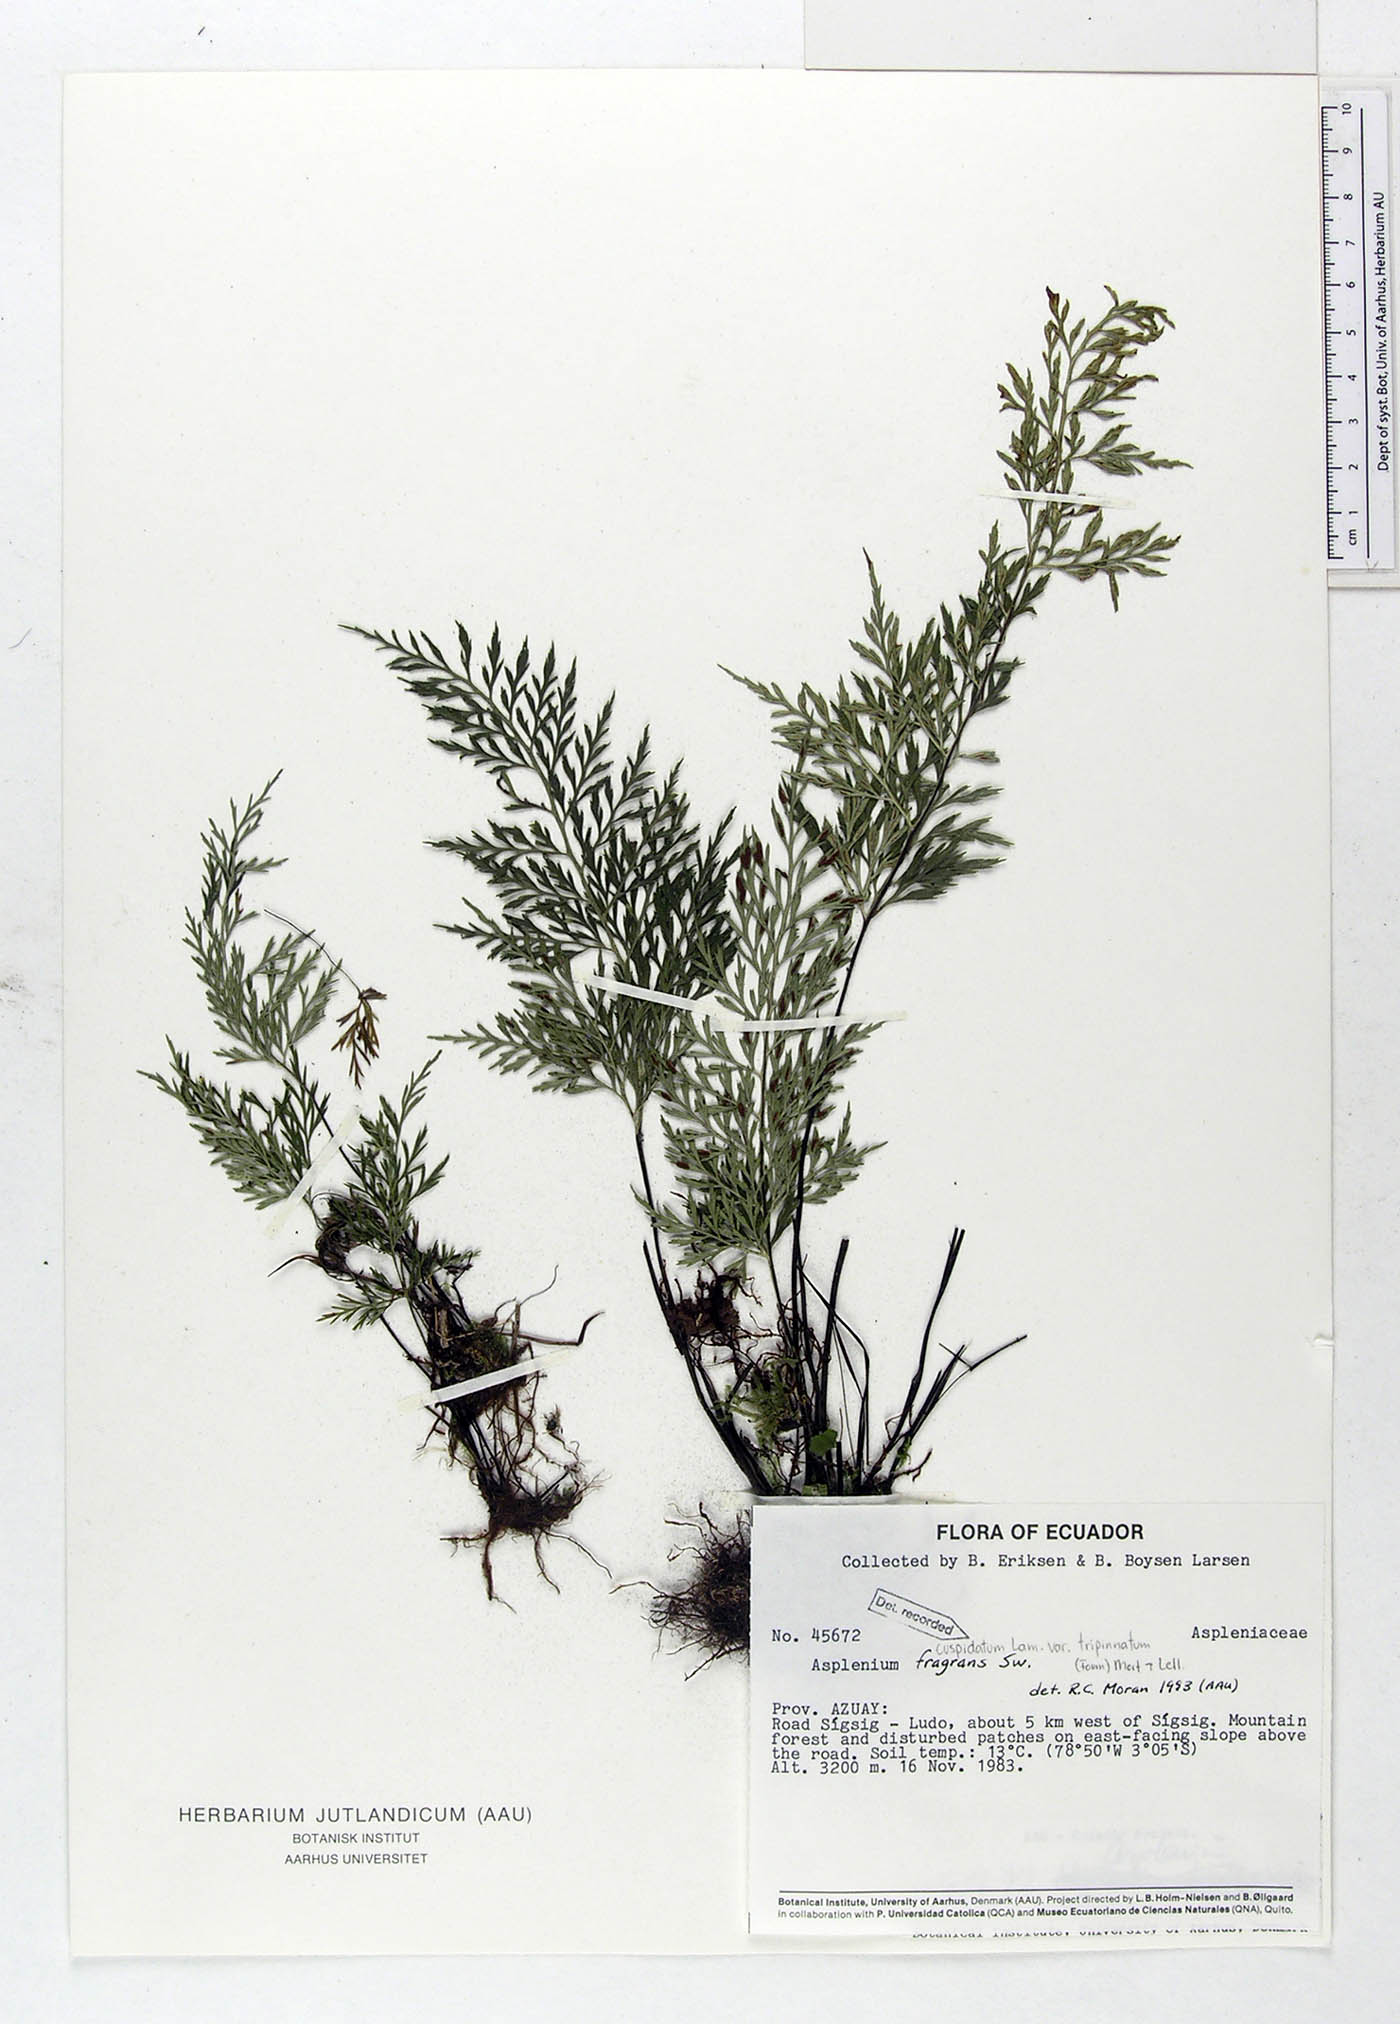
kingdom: Plantae
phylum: Tracheophyta
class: Polypodiopsida
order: Polypodiales
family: Aspleniaceae
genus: Asplenium
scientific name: Asplenium fragrans
